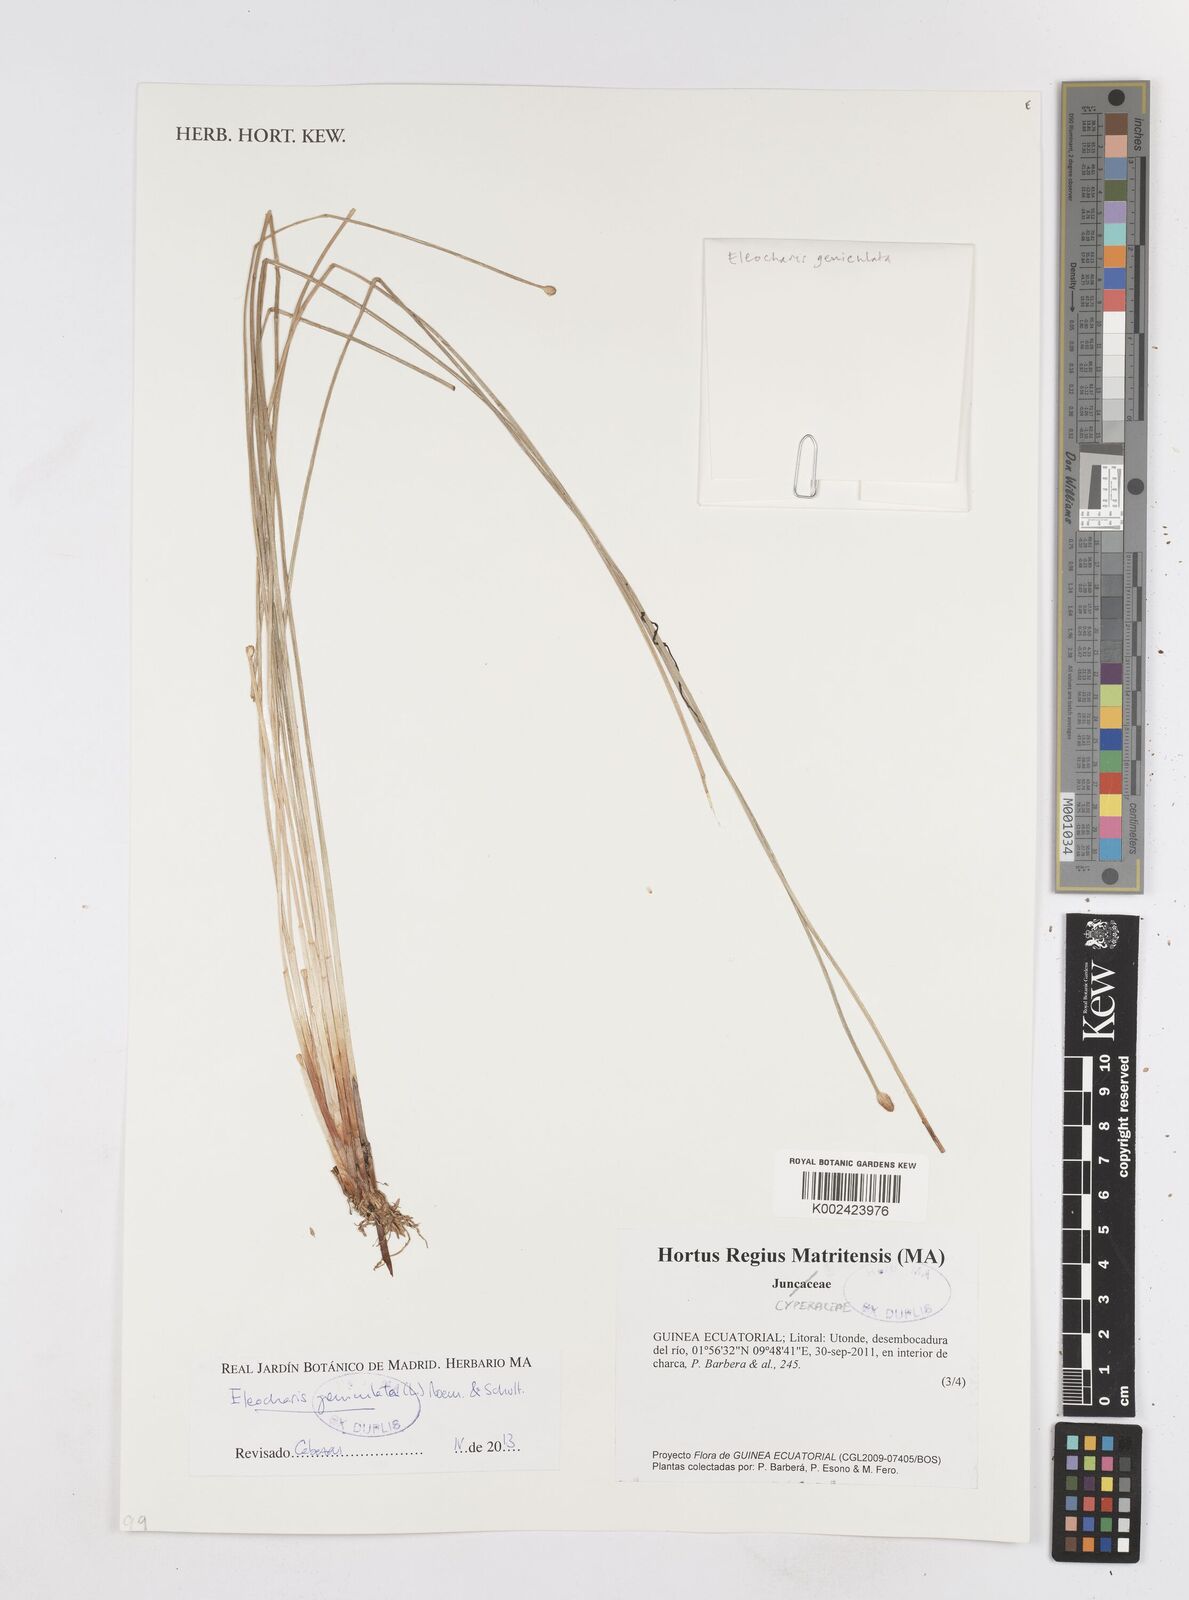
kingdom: Plantae
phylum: Tracheophyta
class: Liliopsida
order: Poales
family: Cyperaceae
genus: Eleocharis
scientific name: Eleocharis geniculata
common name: Canada spikesedge
